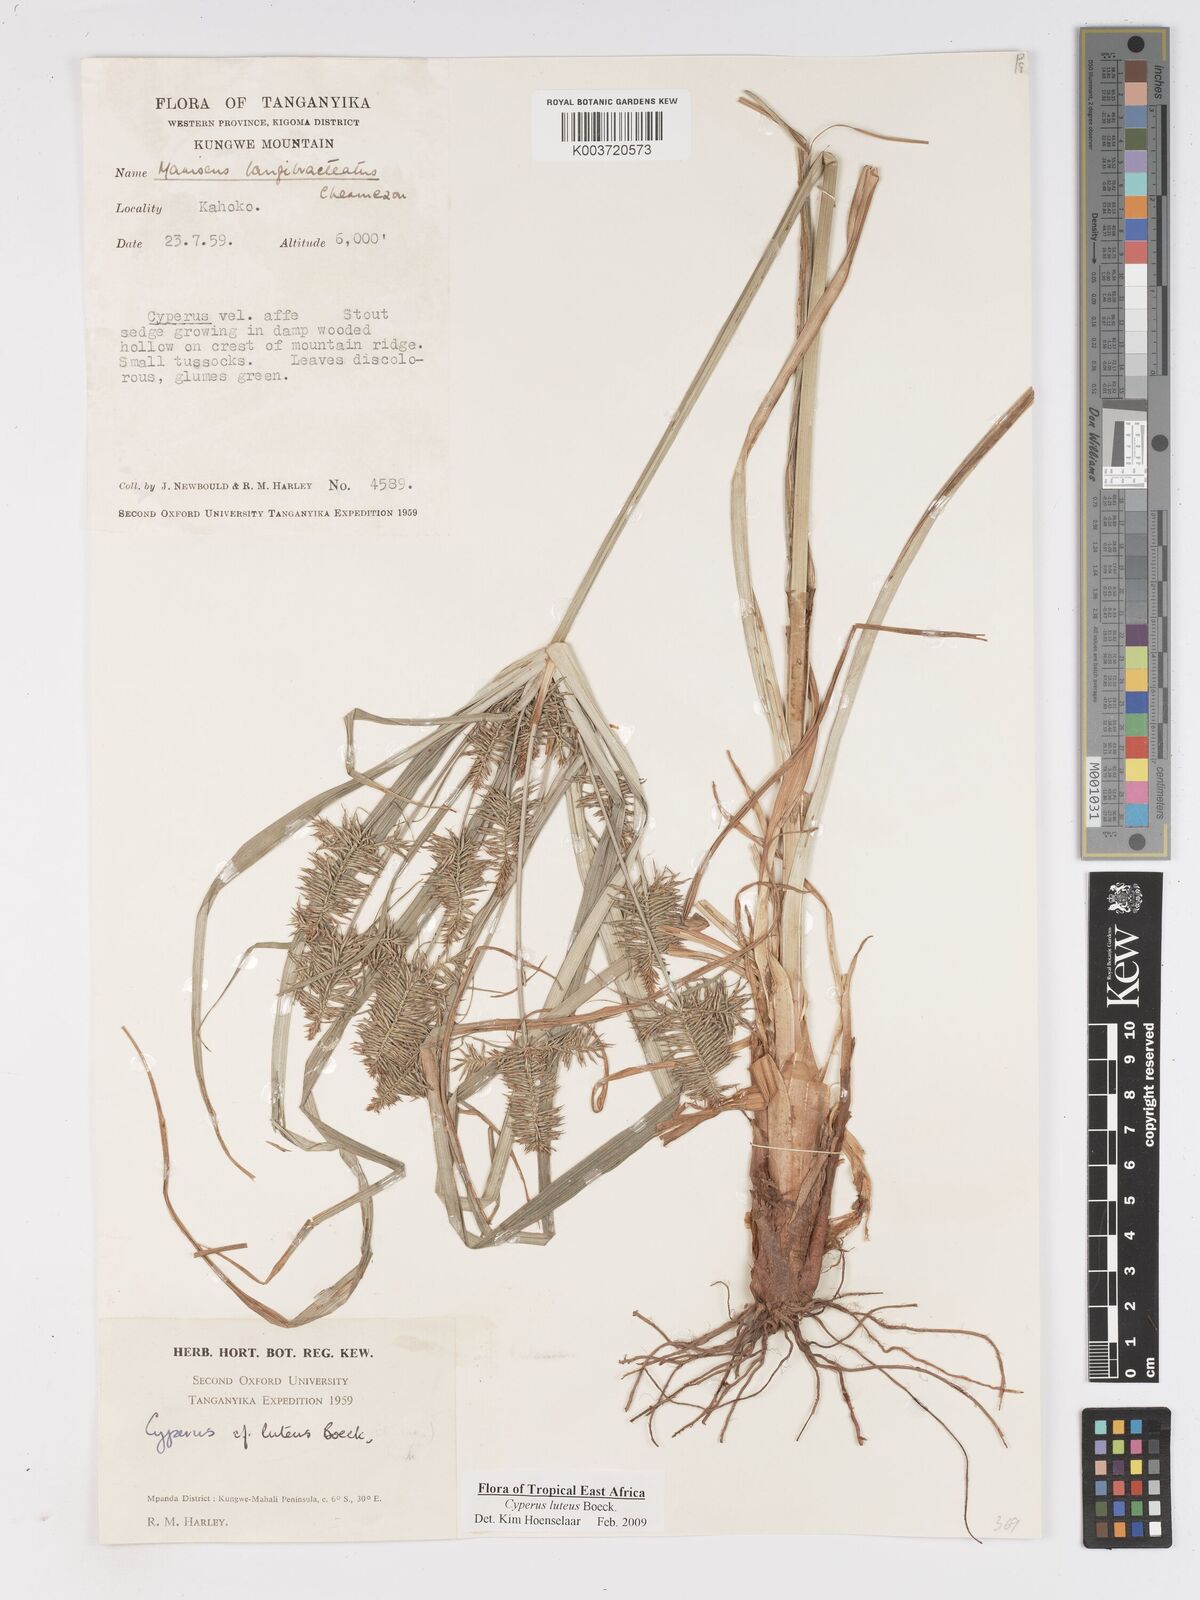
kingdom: Plantae
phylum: Tracheophyta
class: Liliopsida
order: Poales
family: Cyperaceae
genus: Cyperus
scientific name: Cyperus luteus
